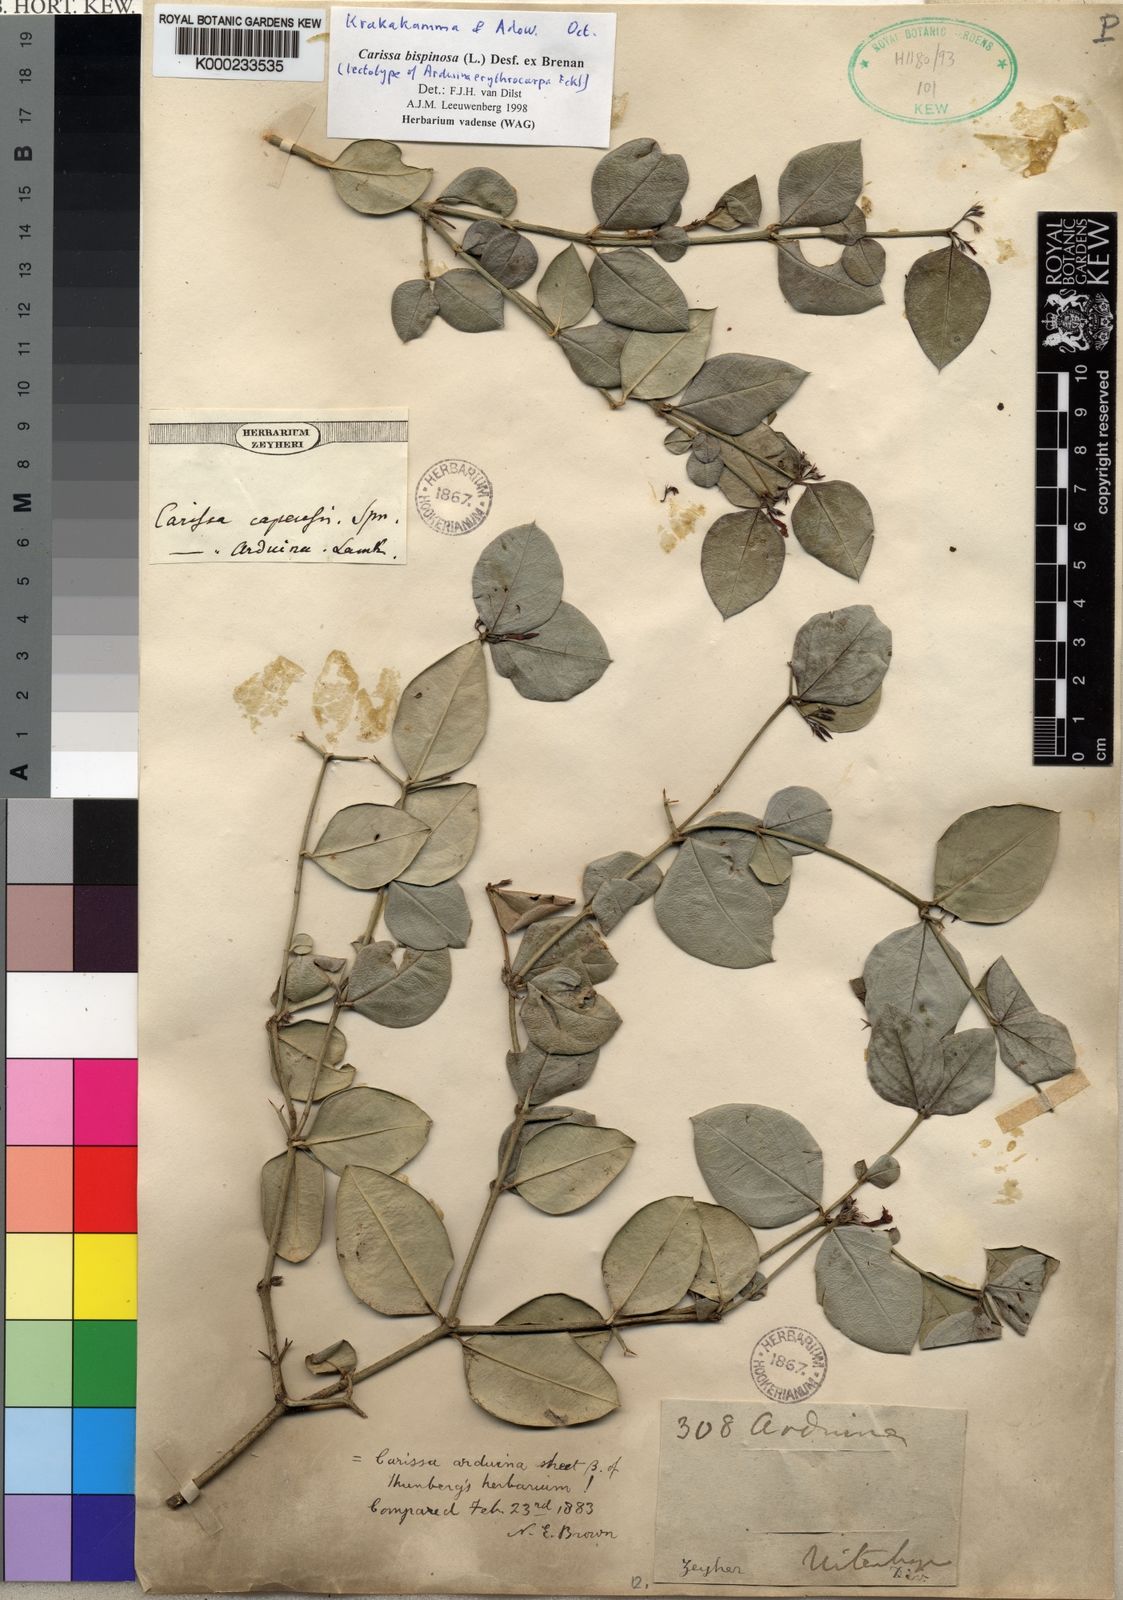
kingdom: Plantae
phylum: Tracheophyta
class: Magnoliopsida
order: Gentianales
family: Apocynaceae
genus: Carissa
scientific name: Carissa bispinosa
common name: Forest num-num
